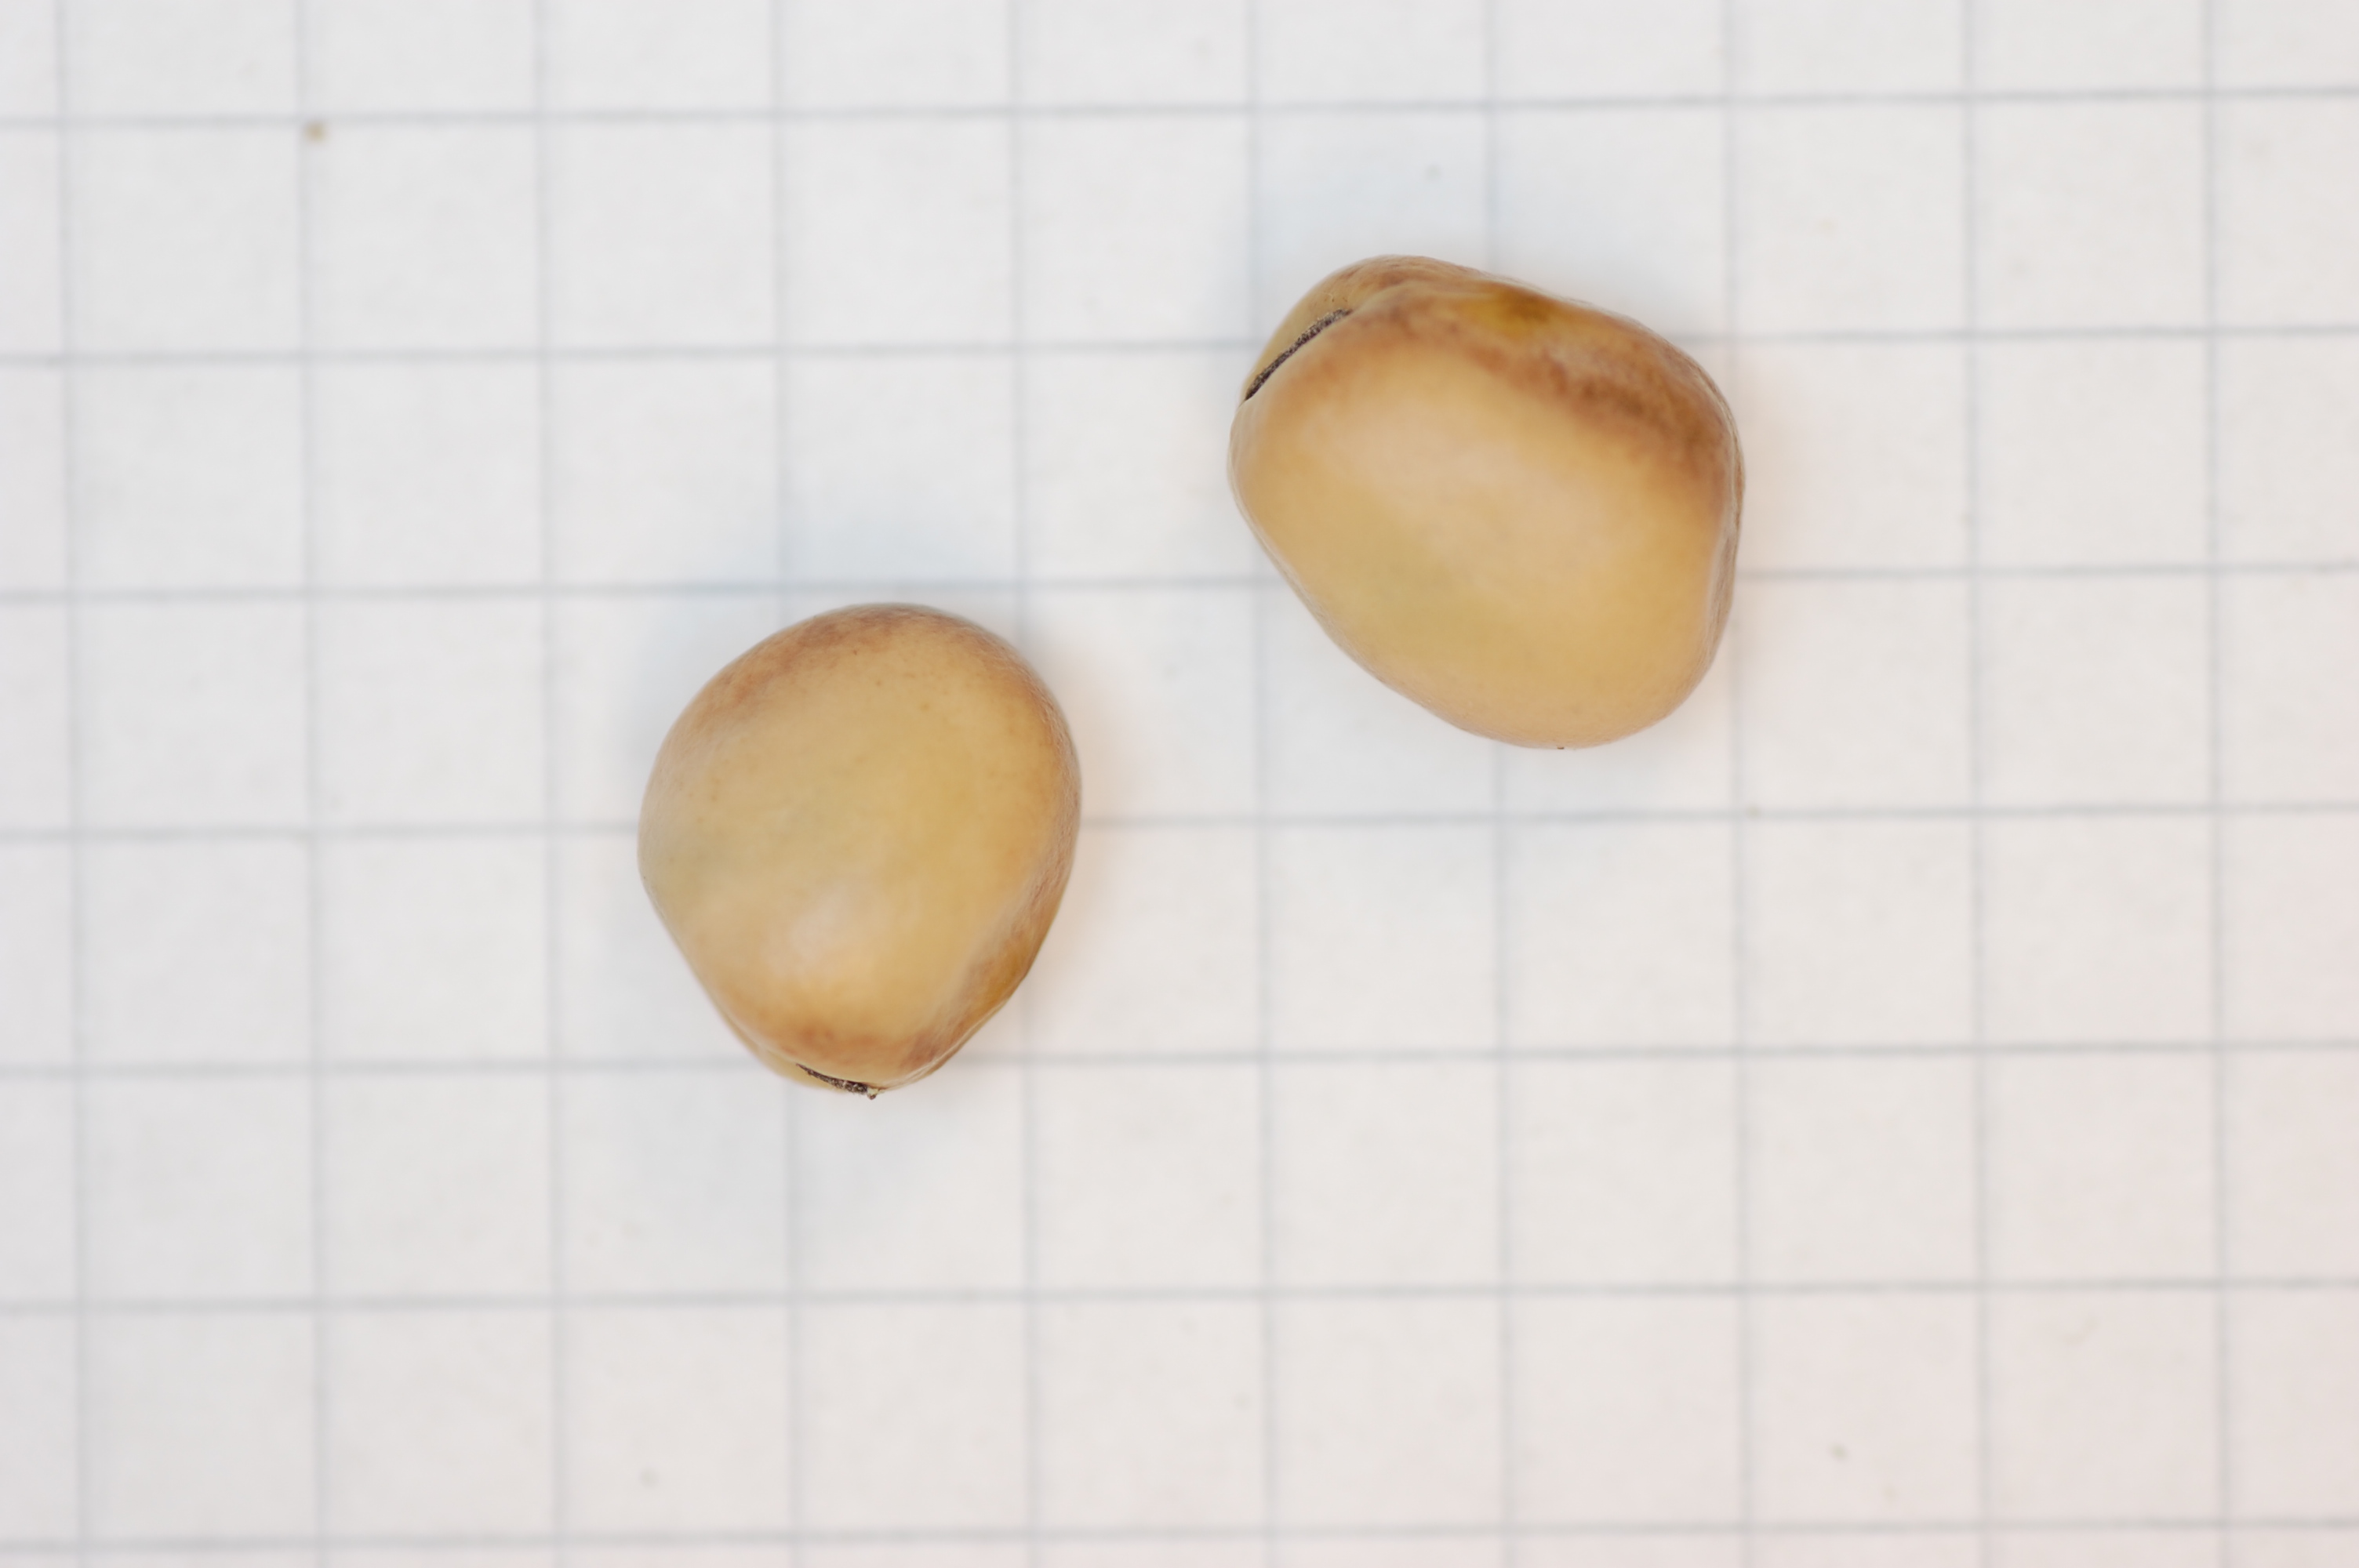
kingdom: Plantae
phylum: Tracheophyta
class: Magnoliopsida
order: Fabales
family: Fabaceae
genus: Vicia
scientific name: Vicia faba
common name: Broad bean
